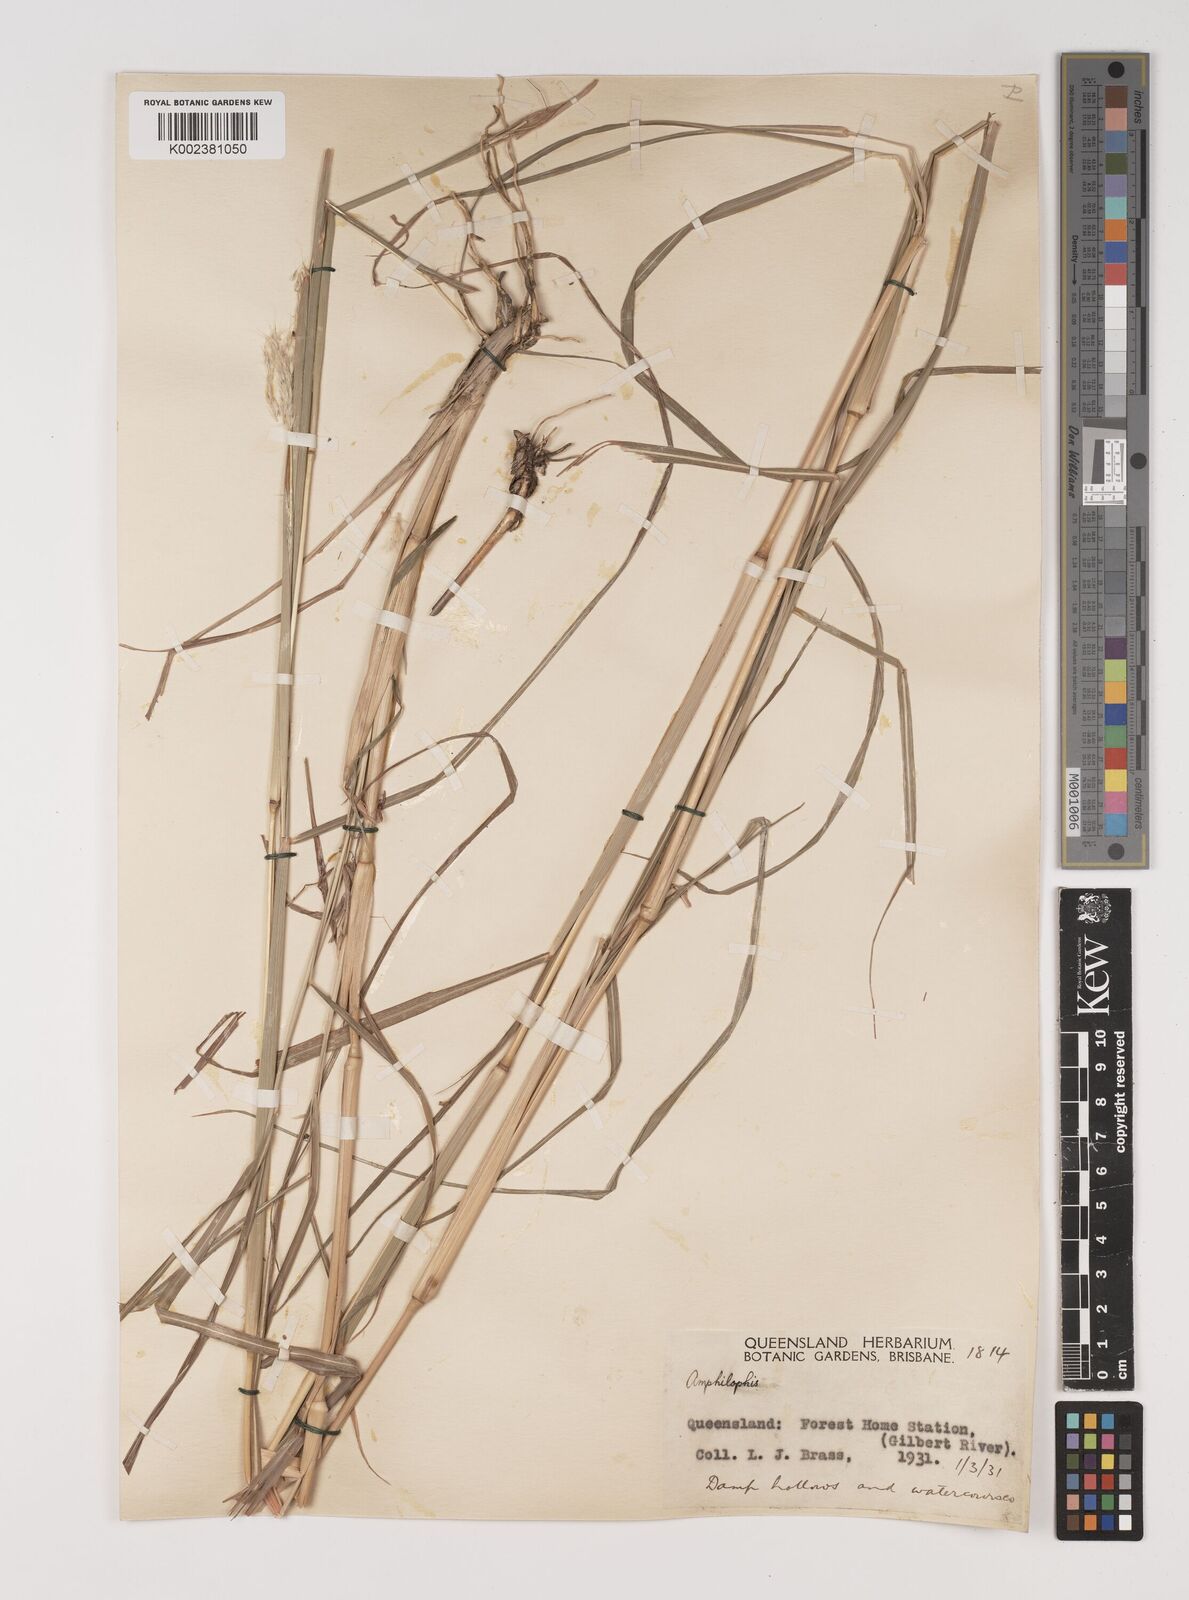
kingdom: Plantae
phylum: Tracheophyta
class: Liliopsida
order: Poales
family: Poaceae
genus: Bothriochloa
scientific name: Bothriochloa decipiens
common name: Pitted-bluegrass
